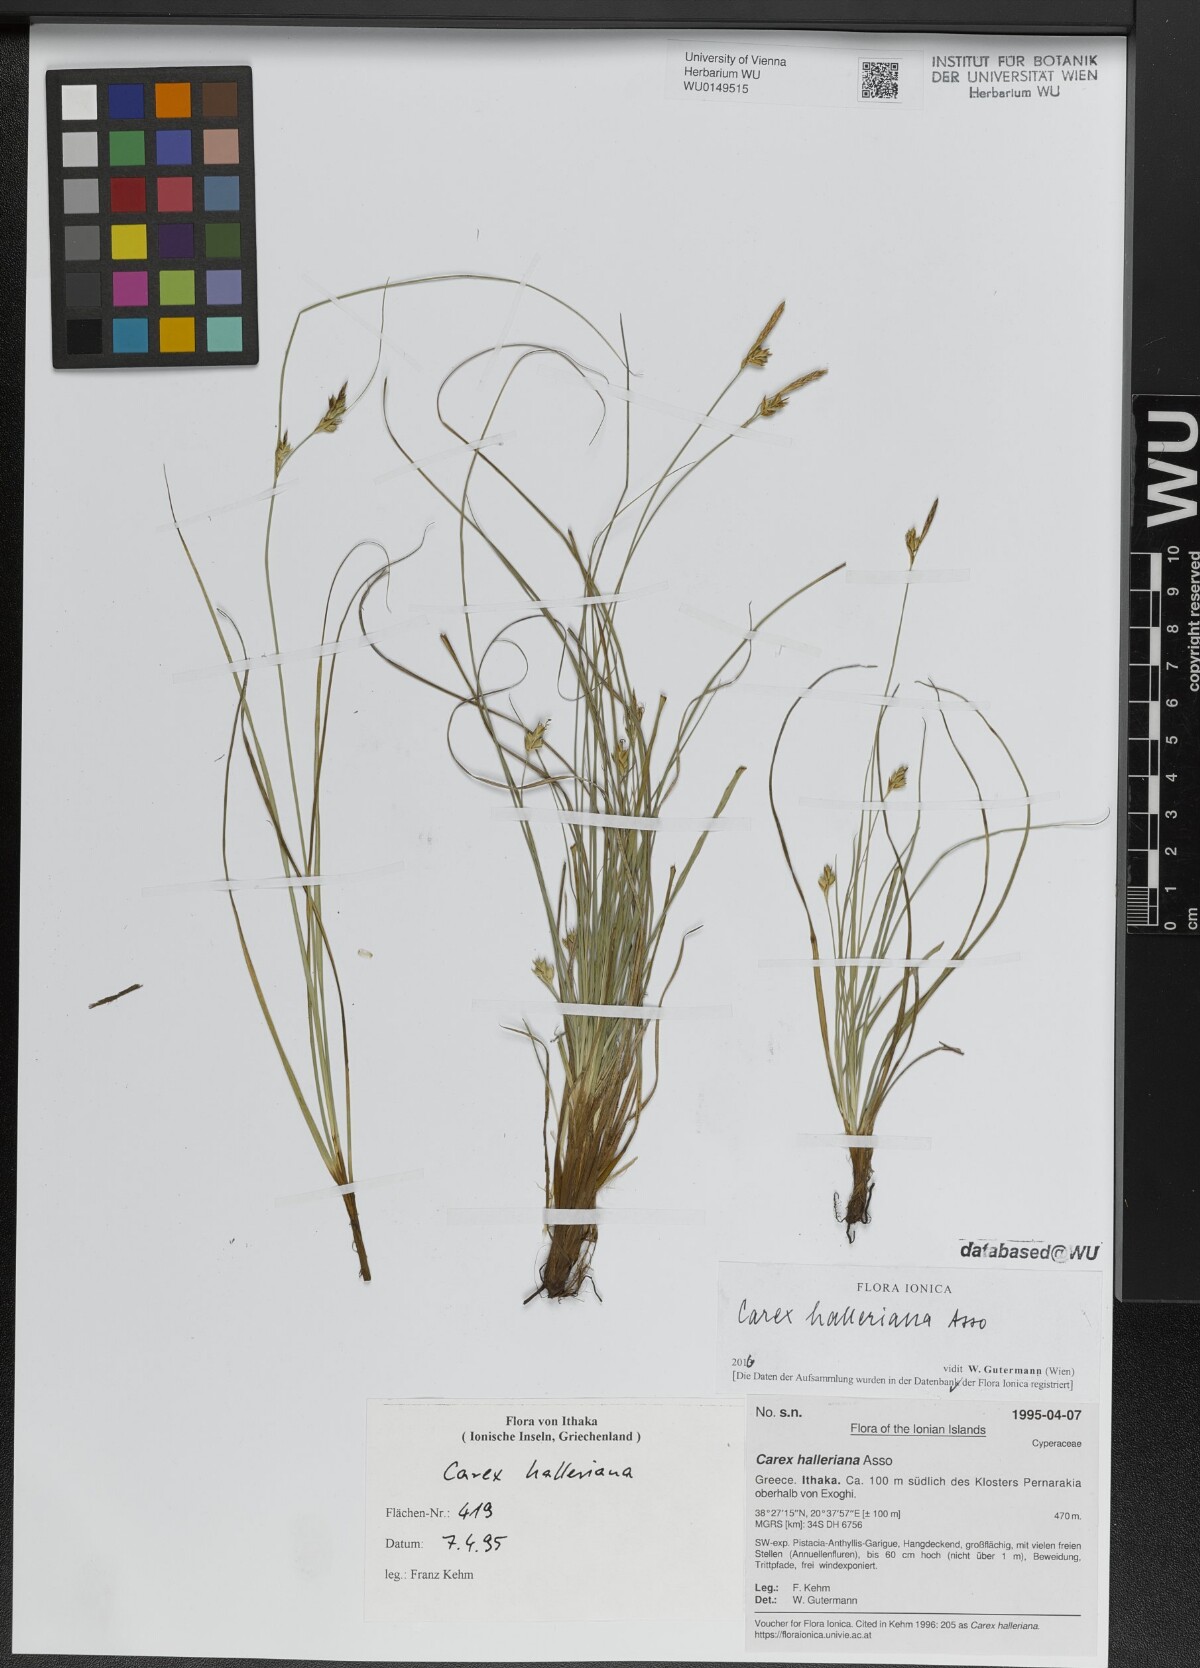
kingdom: Plantae
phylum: Tracheophyta
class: Liliopsida
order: Poales
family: Cyperaceae
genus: Carex
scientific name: Carex halleriana
